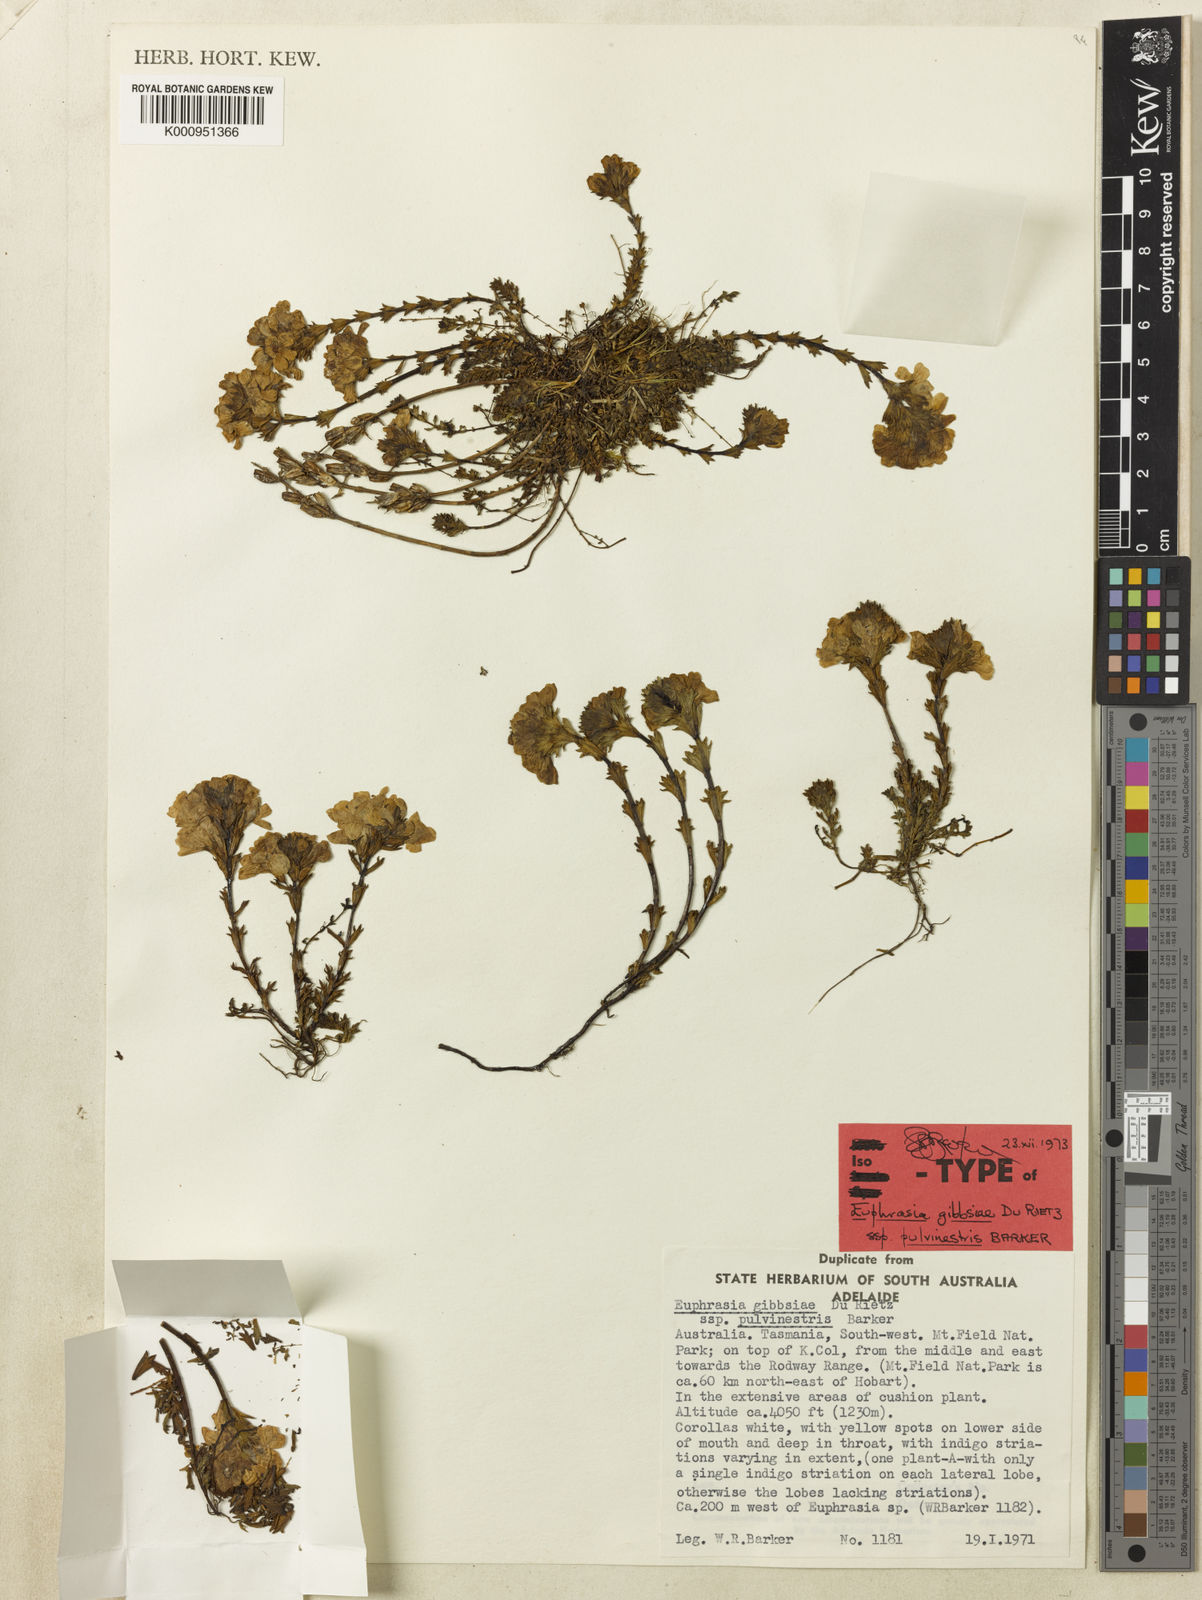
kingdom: Plantae
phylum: Tracheophyta
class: Magnoliopsida
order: Lamiales
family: Orobanchaceae
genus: Euphrasia
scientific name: Euphrasia gibbsiae
